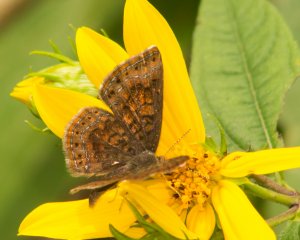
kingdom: Animalia
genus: Calephelis
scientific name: Calephelis borealis
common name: Northern Metalmark
